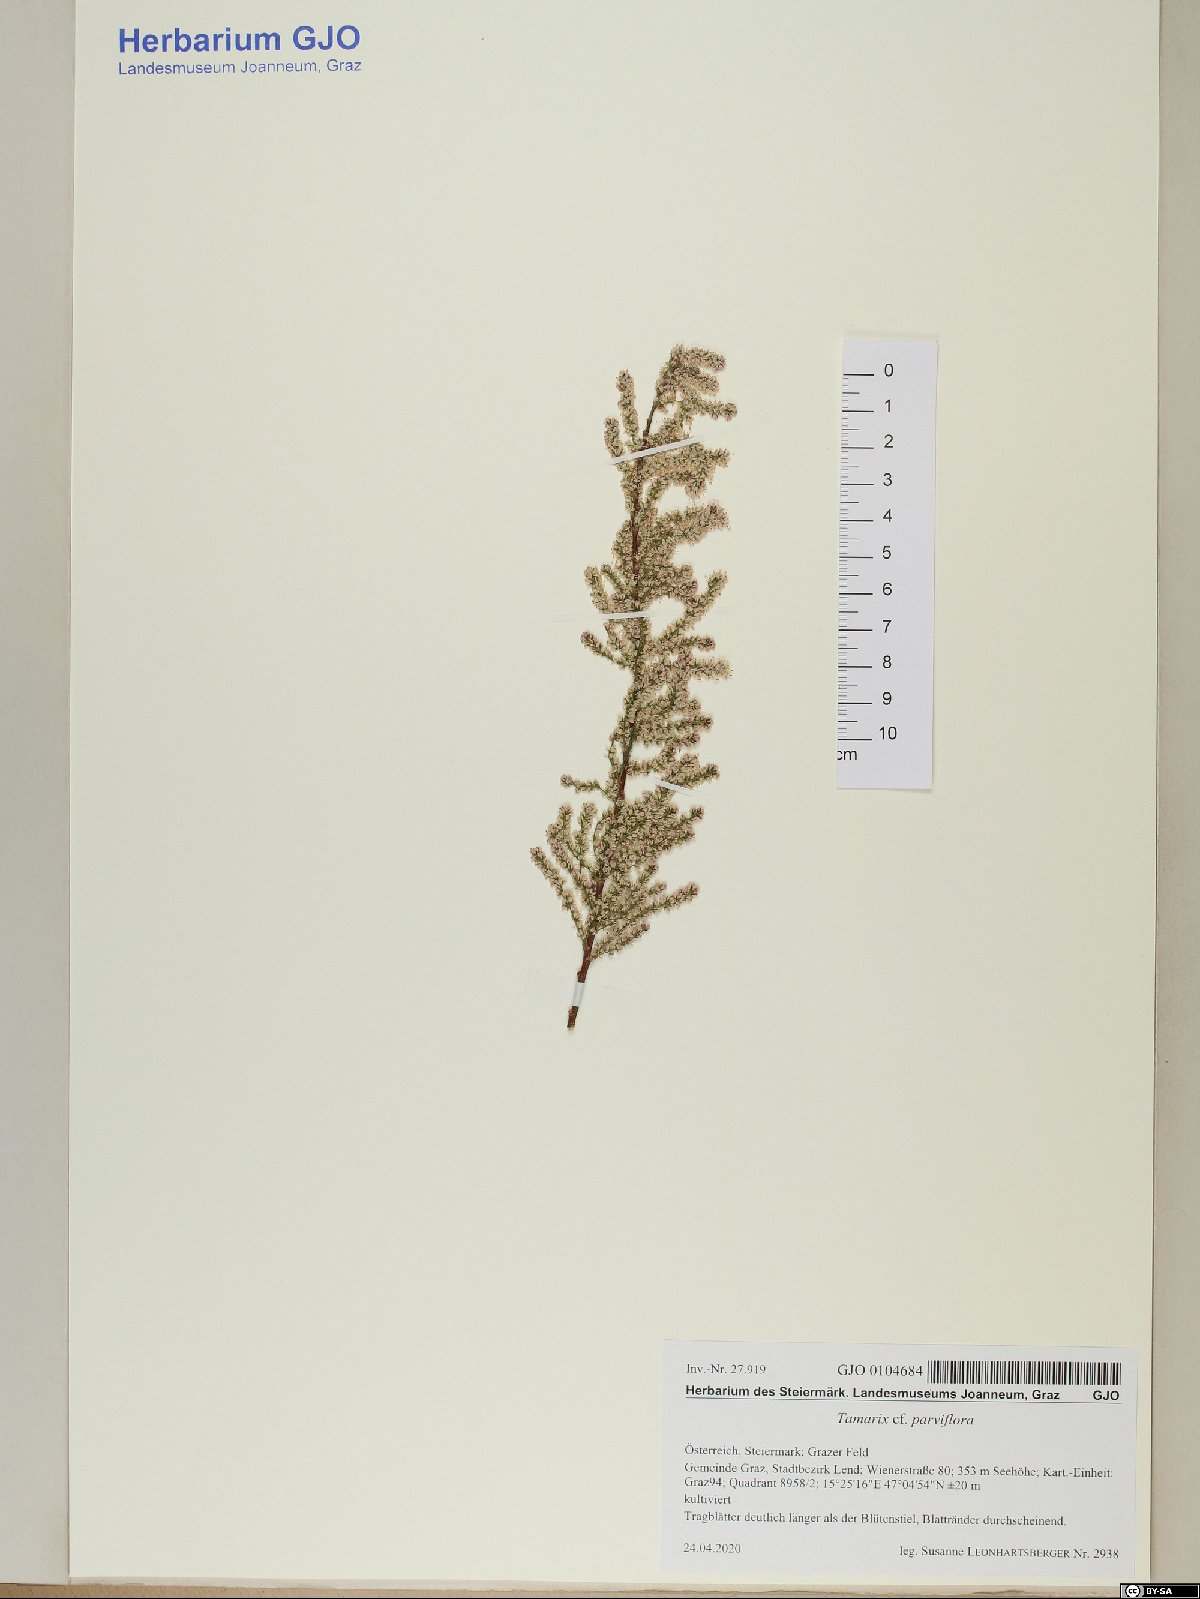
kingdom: Plantae
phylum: Tracheophyta
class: Magnoliopsida
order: Caryophyllales
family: Tamaricaceae
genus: Tamarix
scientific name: Tamarix parviflora
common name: Smallflower tamarisk
